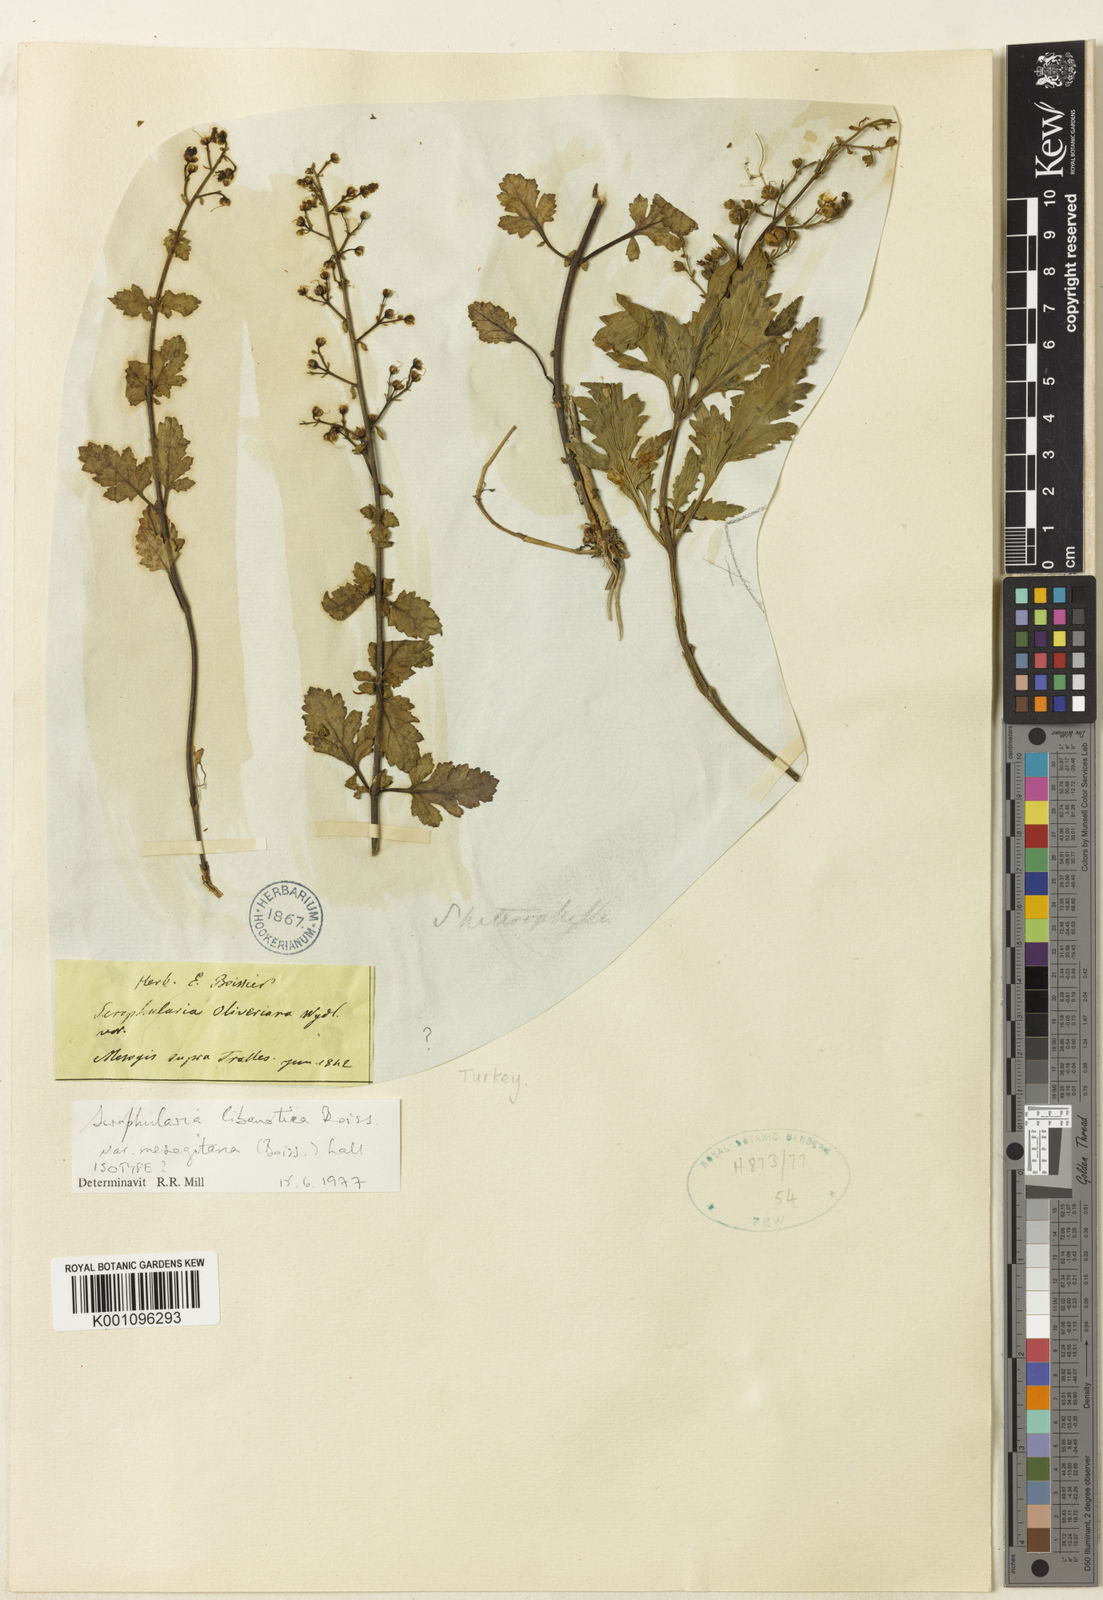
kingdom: Plantae
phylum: Tracheophyta
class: Magnoliopsida
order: Lamiales
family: Scrophulariaceae
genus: Scrophularia
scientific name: Scrophularia libanotica
